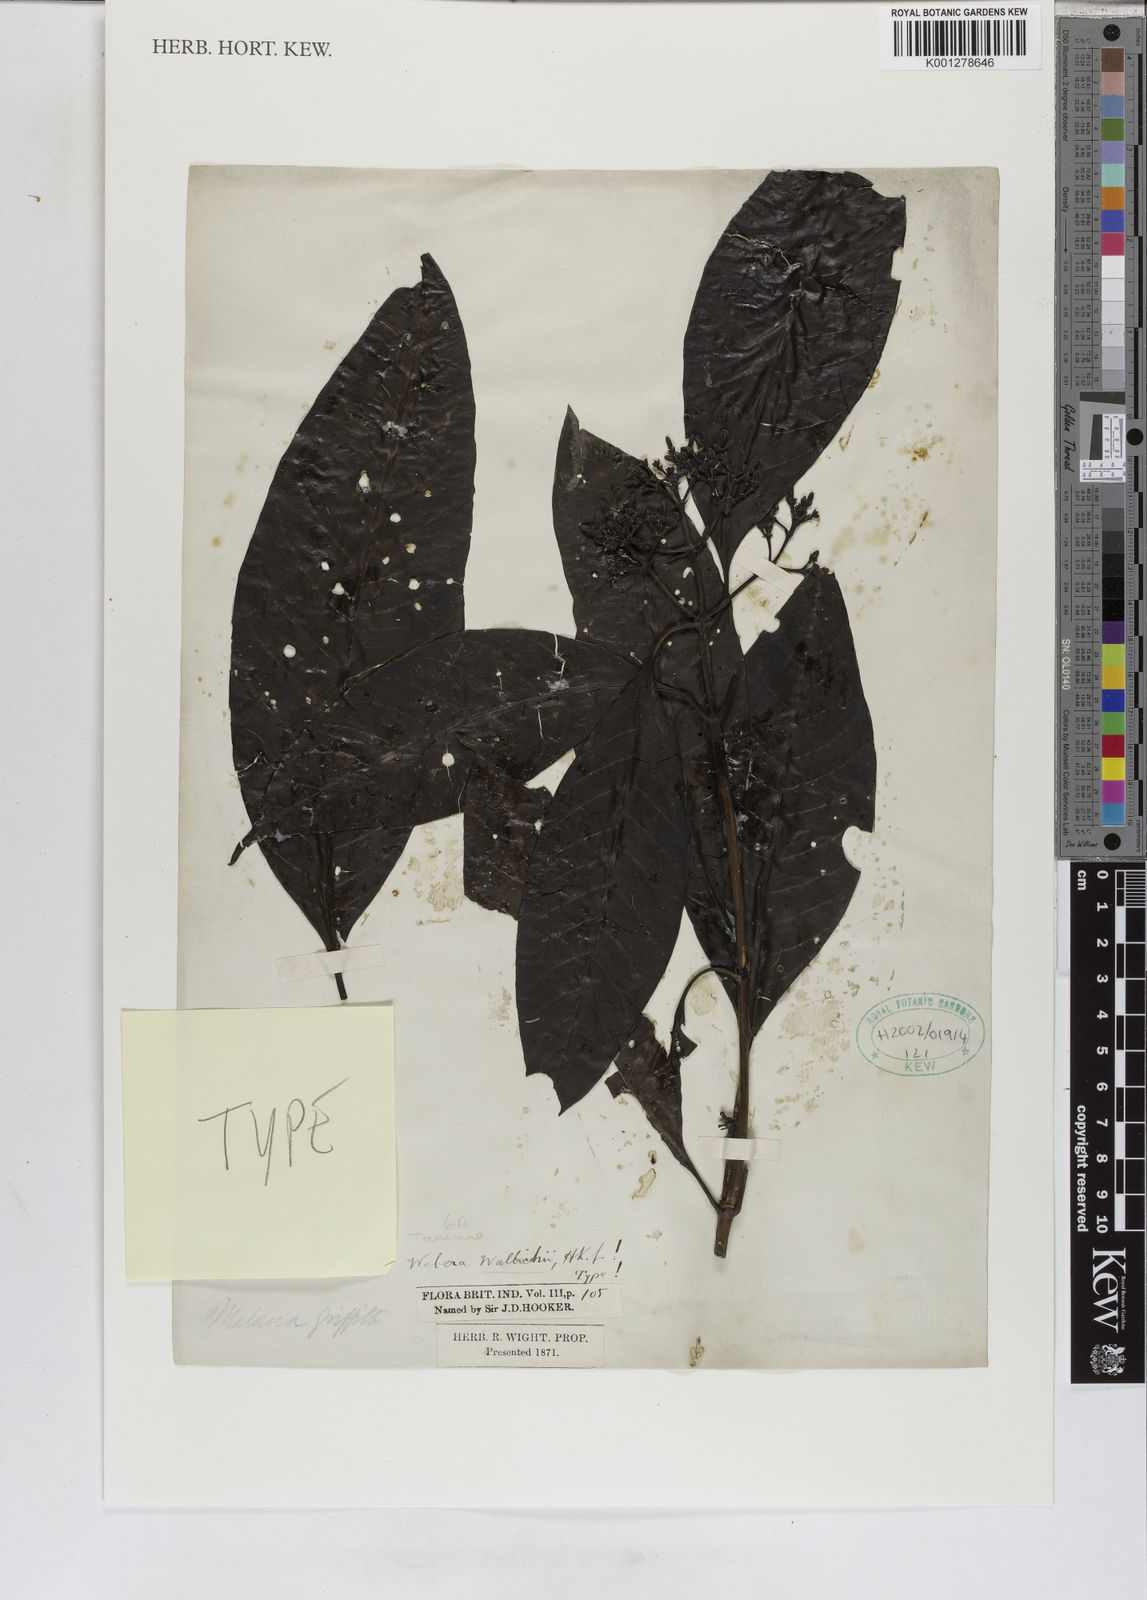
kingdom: Plantae
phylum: Tracheophyta
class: Magnoliopsida
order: Gentianales
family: Rubiaceae
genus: Tarenna
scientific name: Tarenna wallichii
